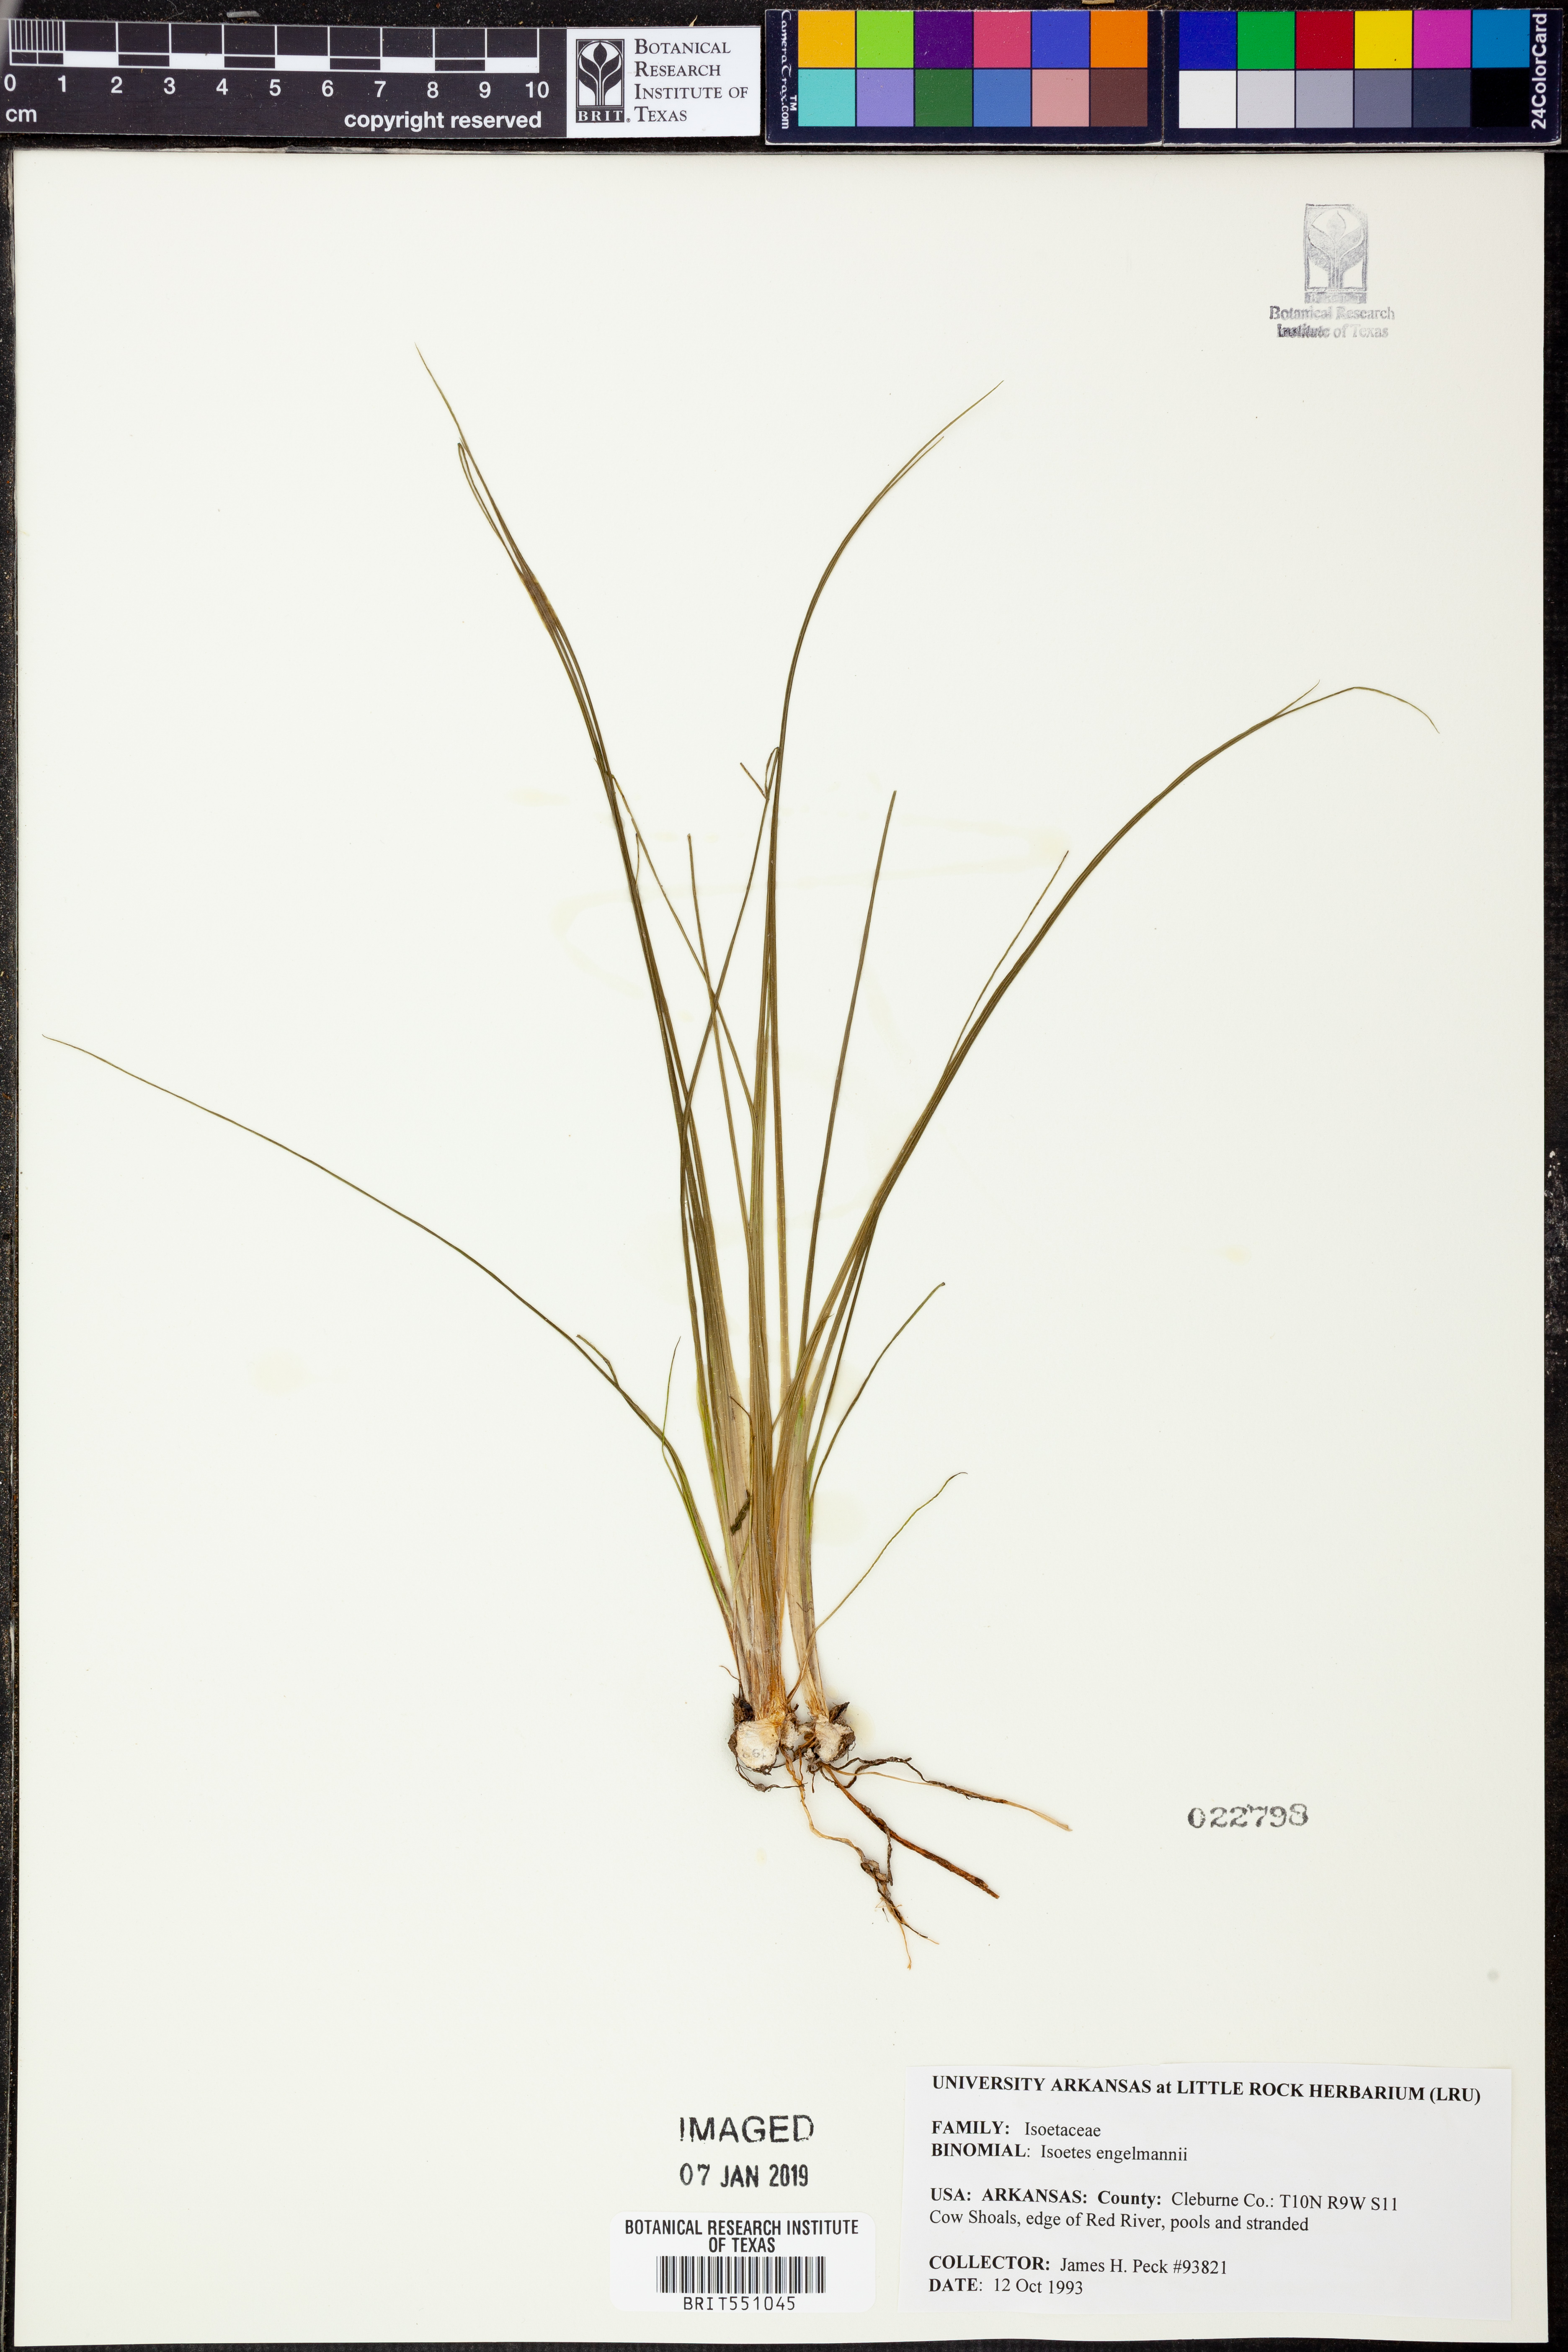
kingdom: Plantae
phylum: Tracheophyta
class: Lycopodiopsida
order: Isoetales
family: Isoetaceae
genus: Isoetes
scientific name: Isoetes engelmannii
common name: Engelmann's quillwort
